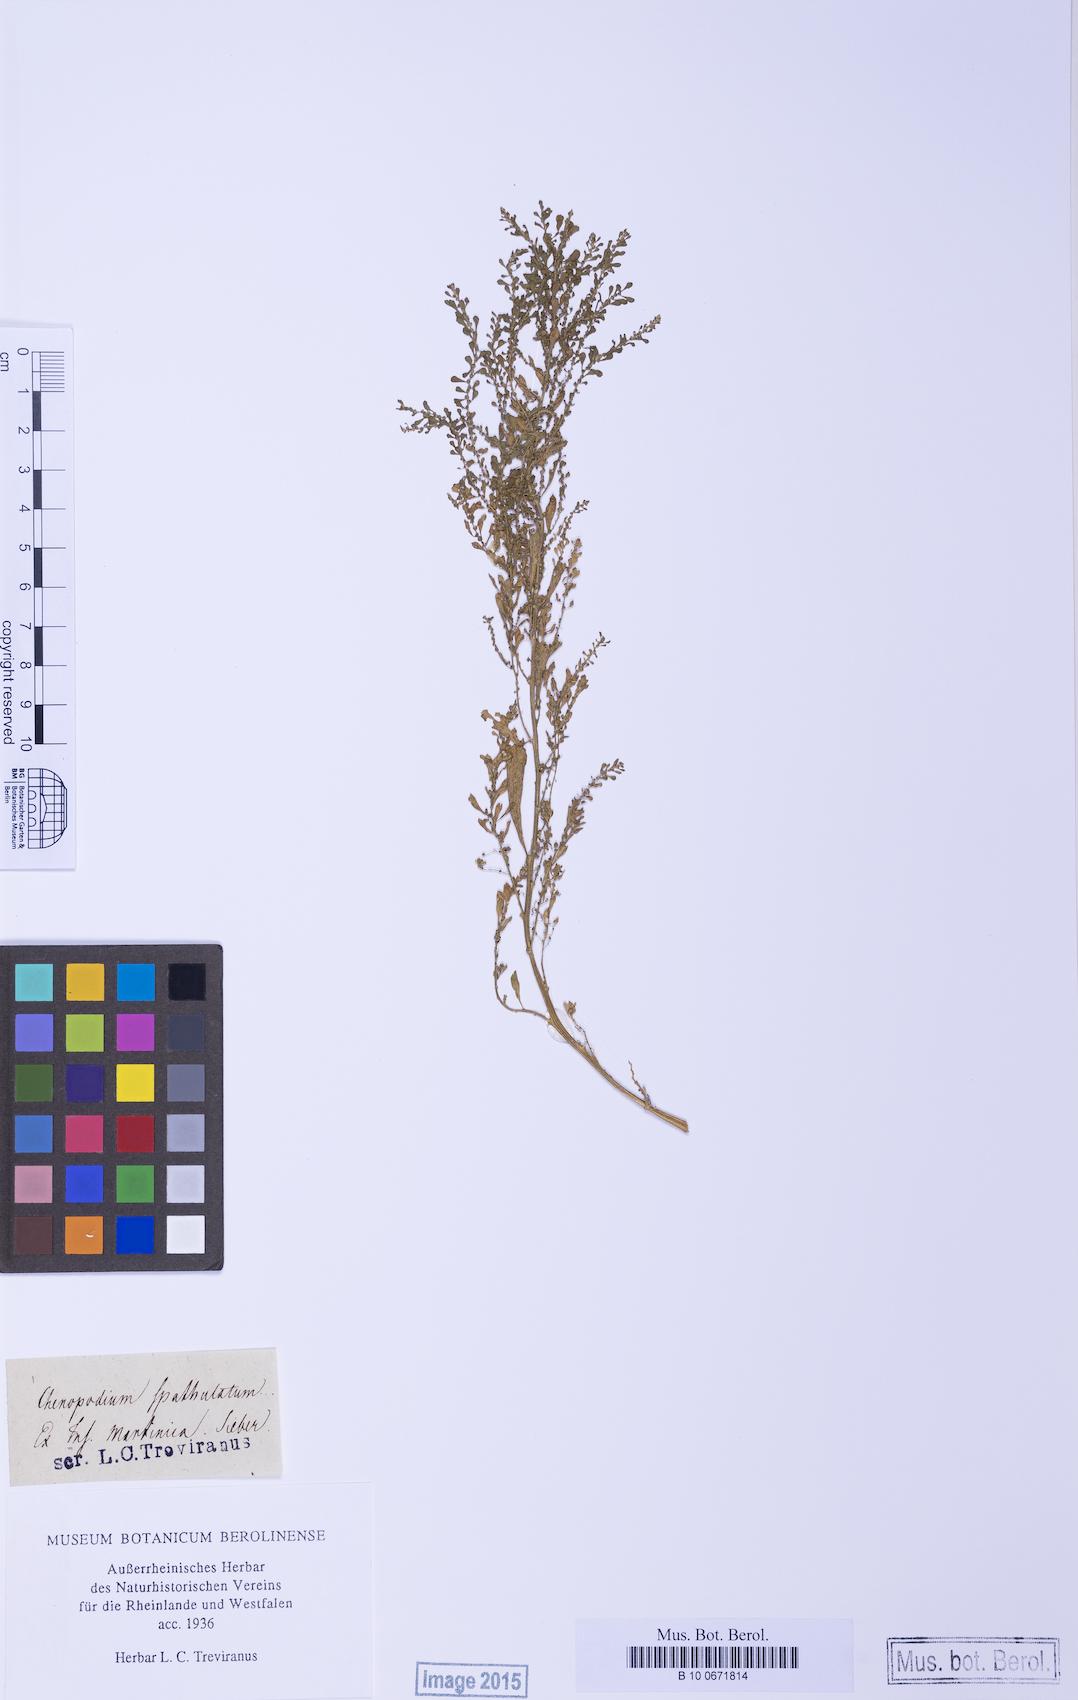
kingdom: Plantae
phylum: Tracheophyta
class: Magnoliopsida
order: Caryophyllales
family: Amaranthaceae
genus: Dysphania
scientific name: Dysphania ambrosioides
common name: Wormseed
